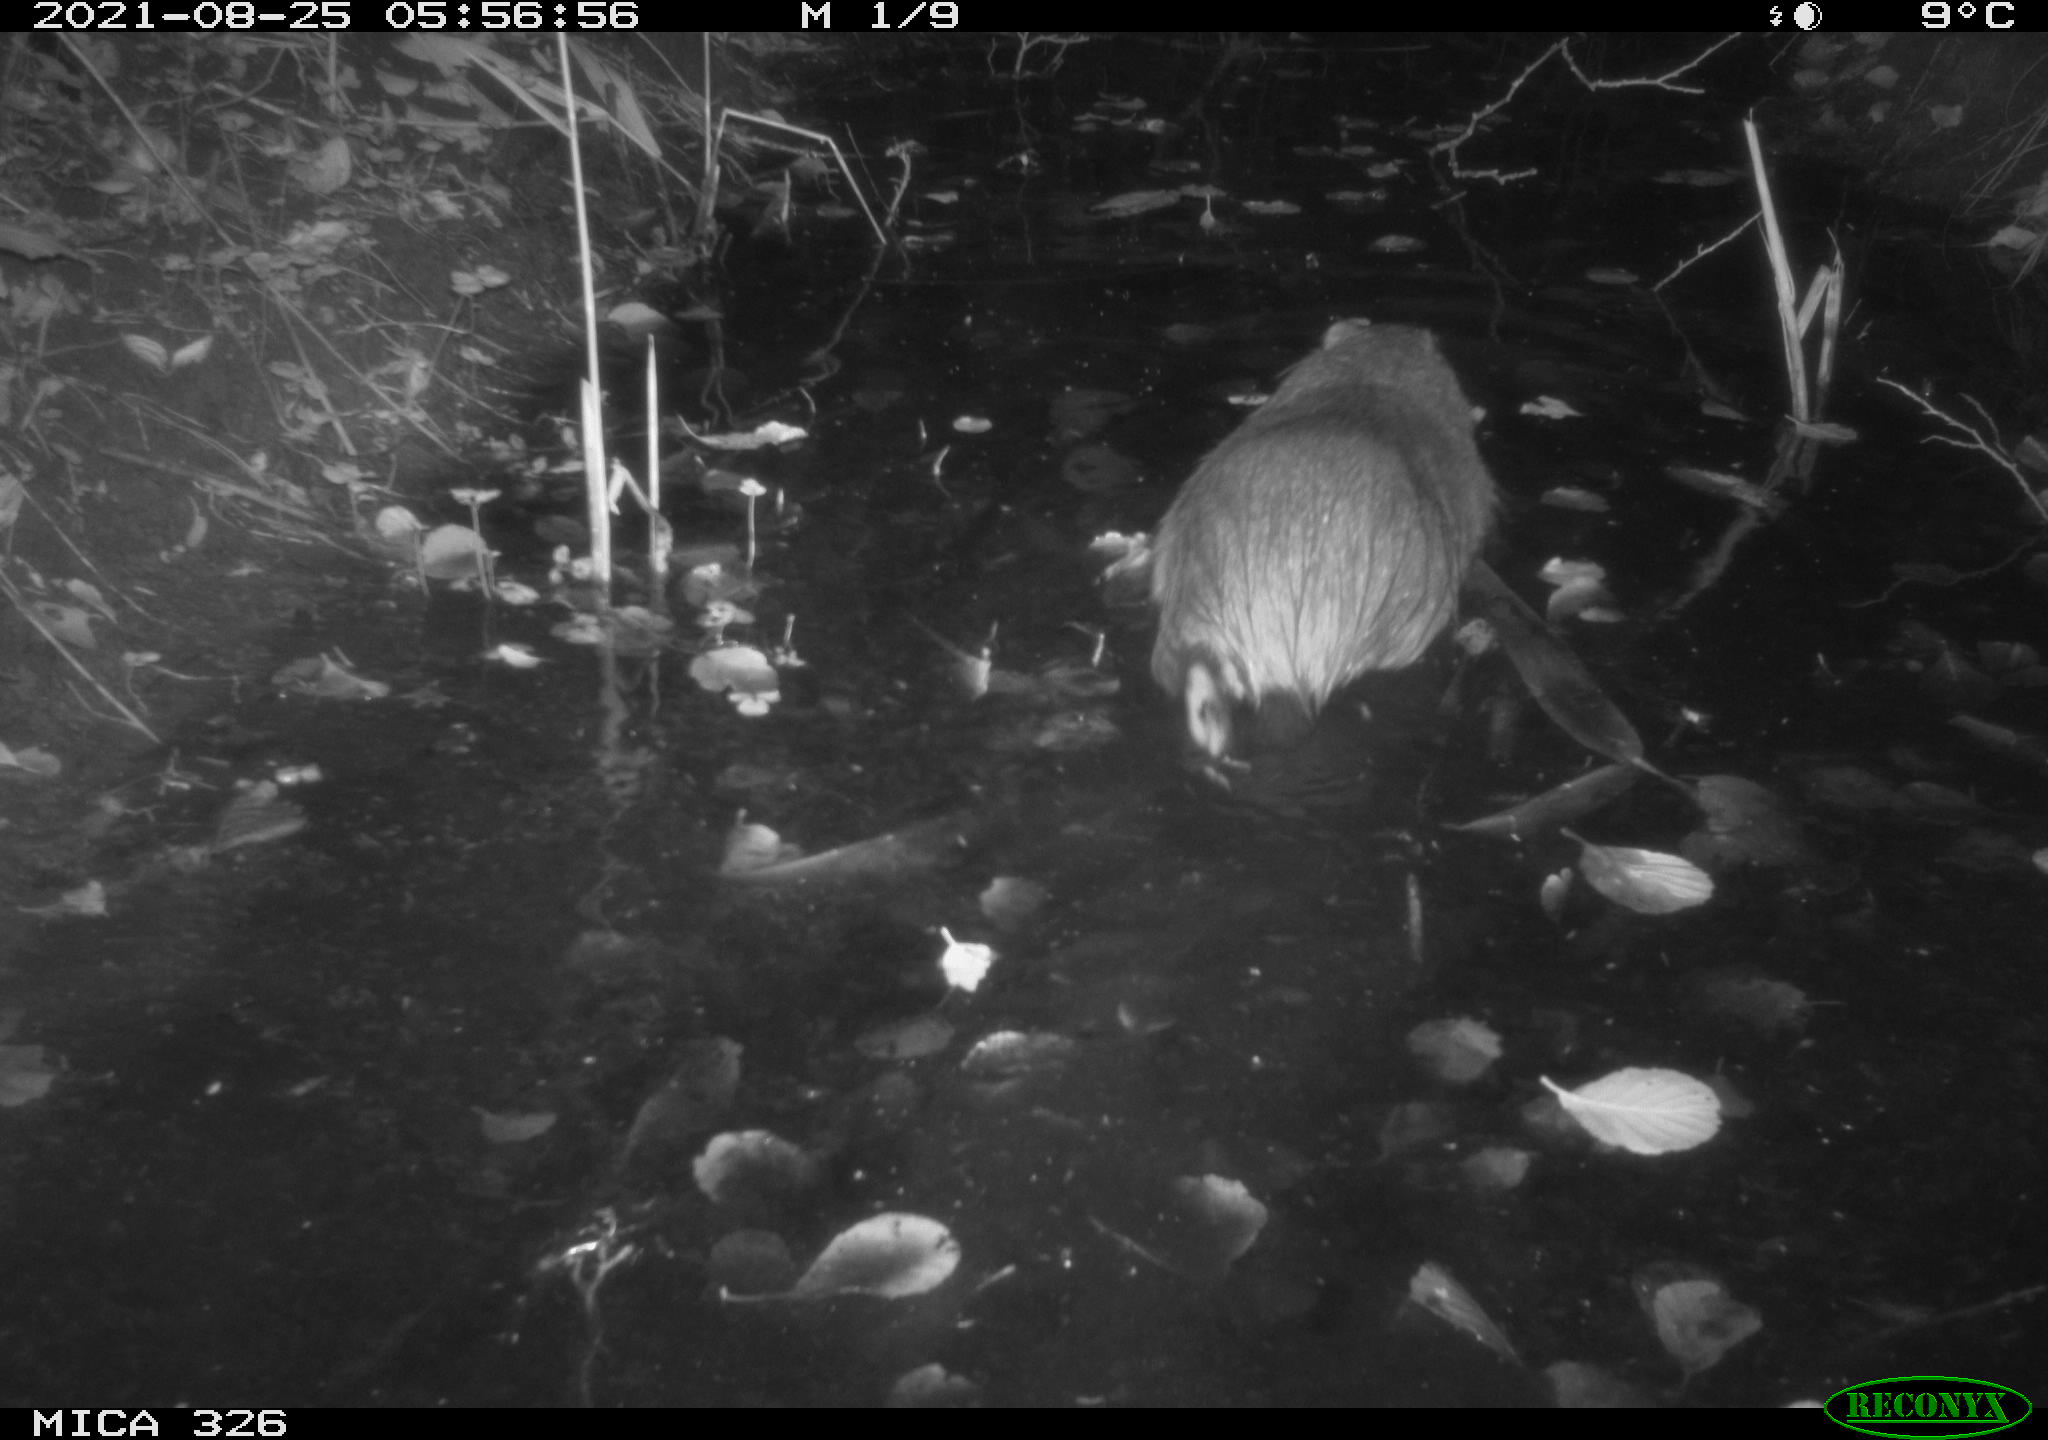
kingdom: Animalia
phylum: Chordata
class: Mammalia
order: Rodentia
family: Myocastoridae
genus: Myocastor
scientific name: Myocastor coypus
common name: Coypu
